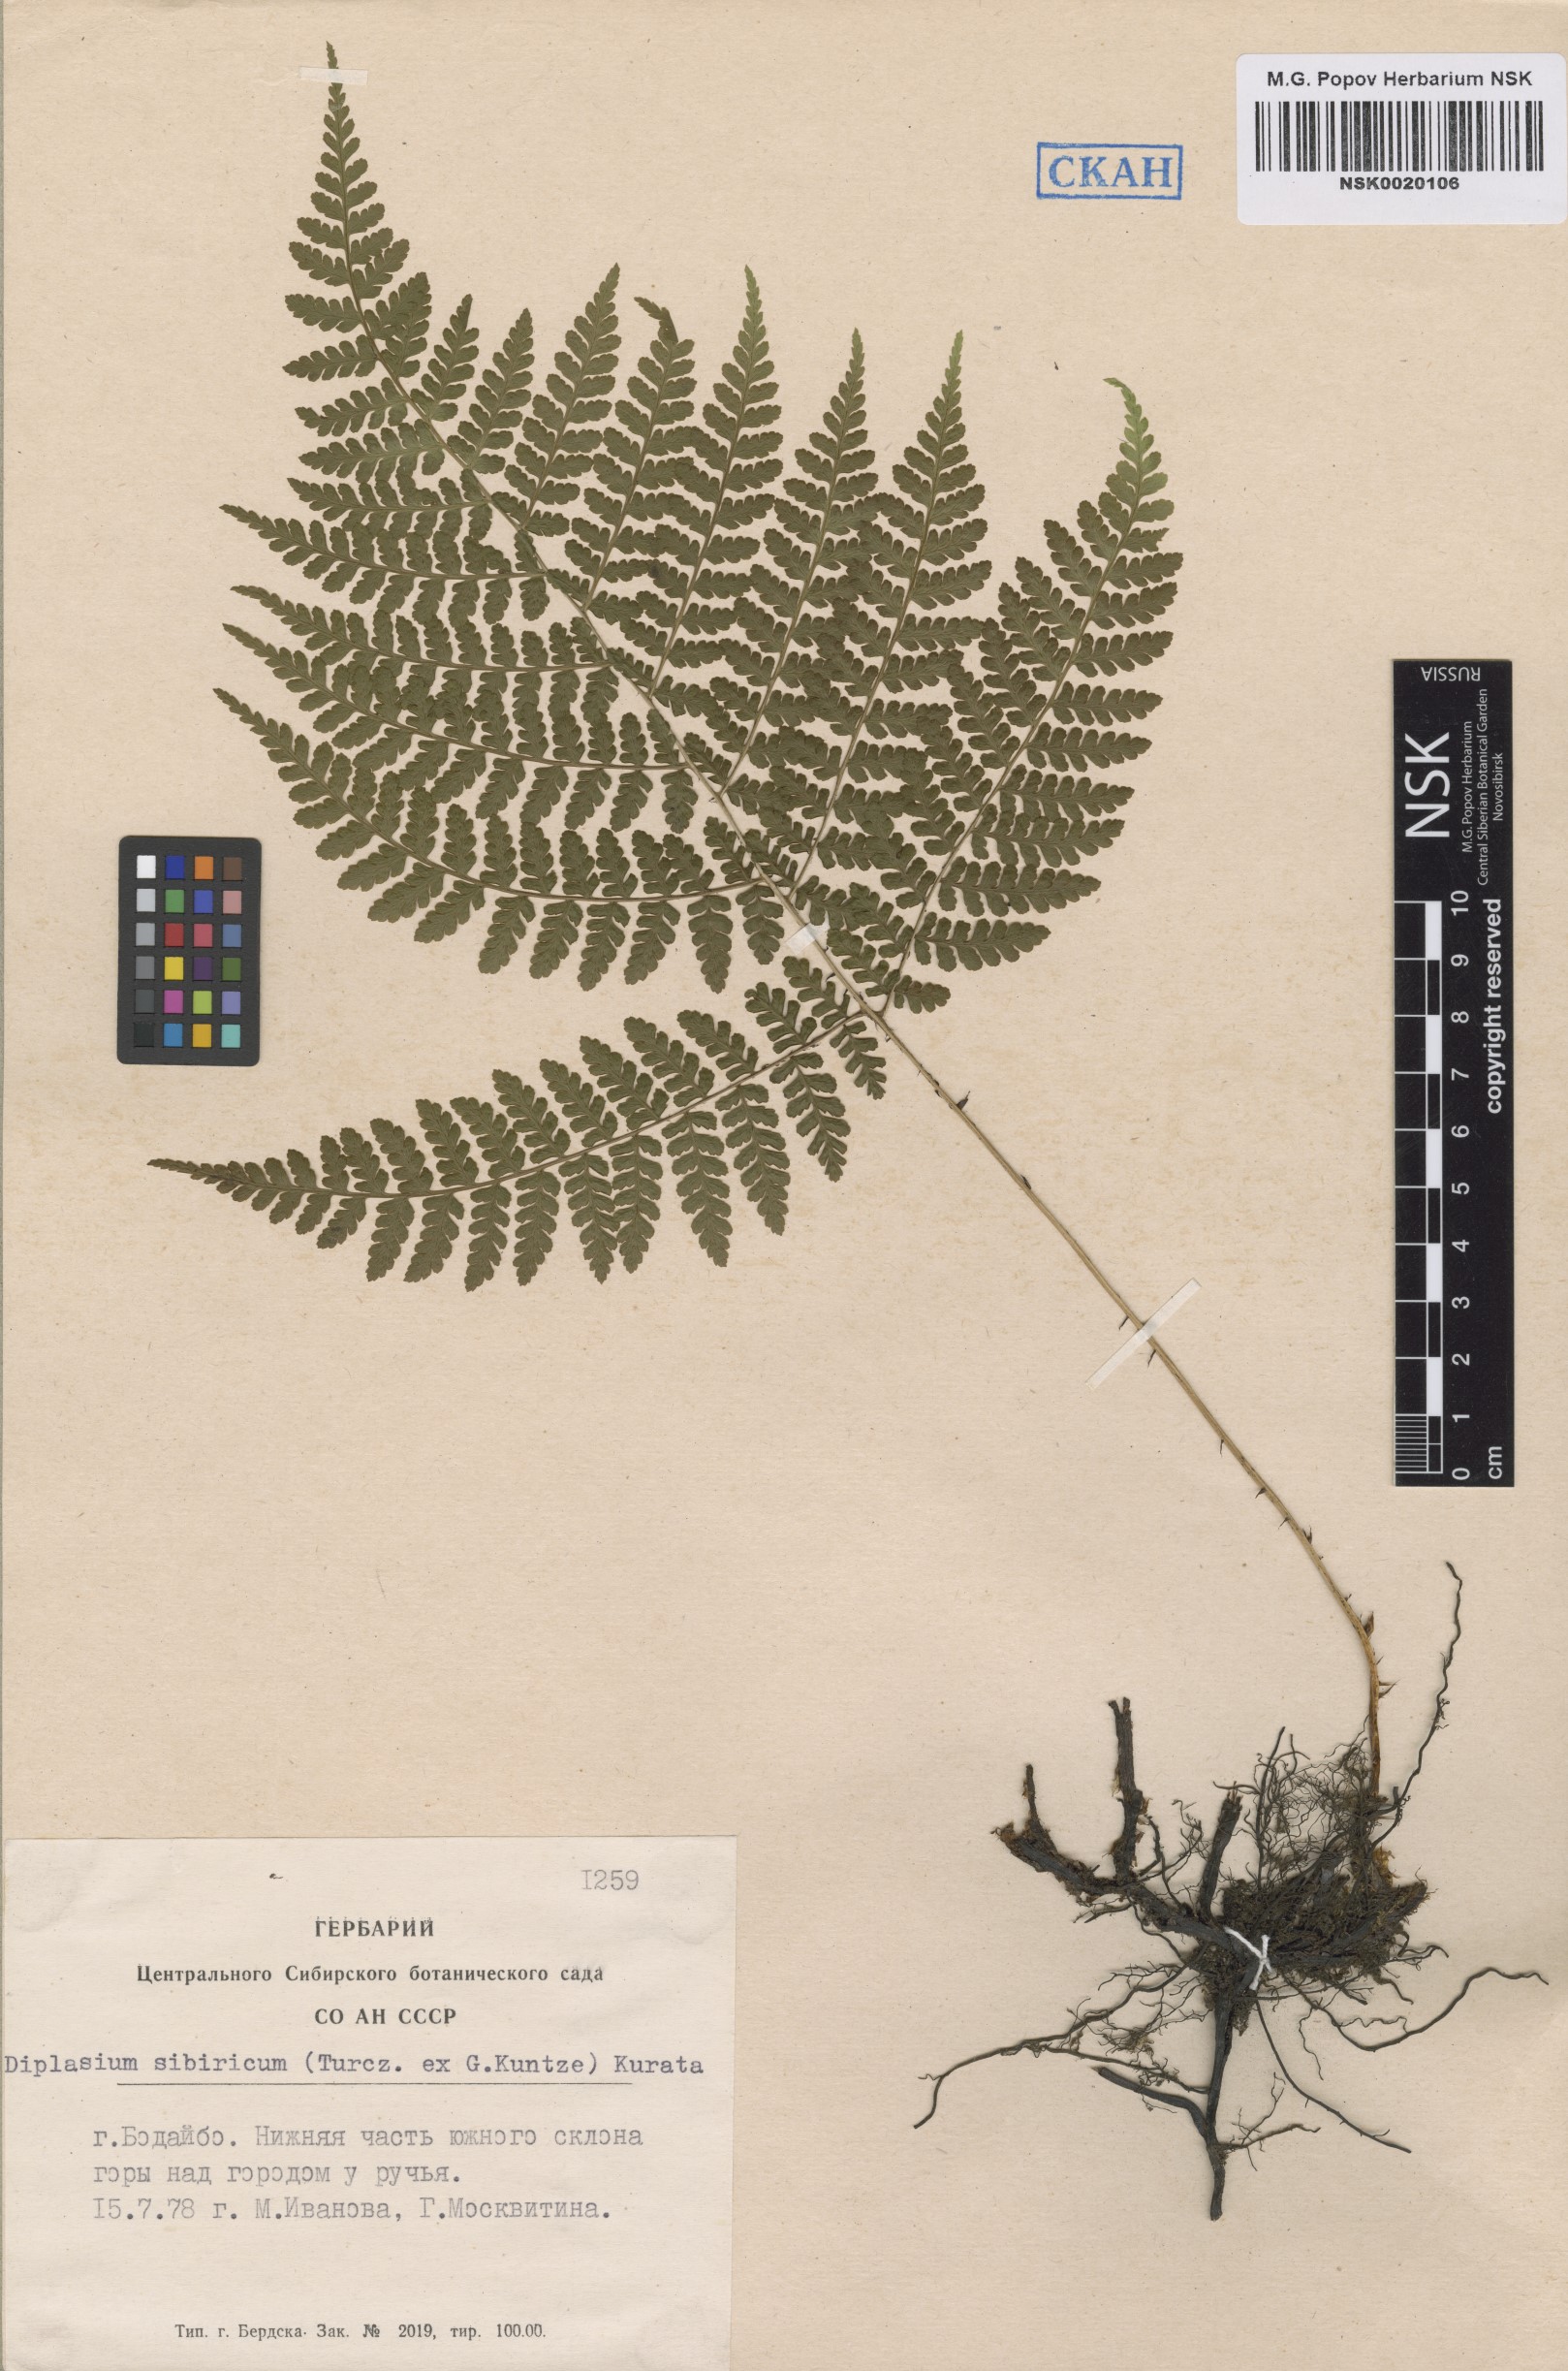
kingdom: Plantae
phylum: Tracheophyta
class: Polypodiopsida
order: Polypodiales
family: Athyriaceae
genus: Diplazium
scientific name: Diplazium sibiricum
